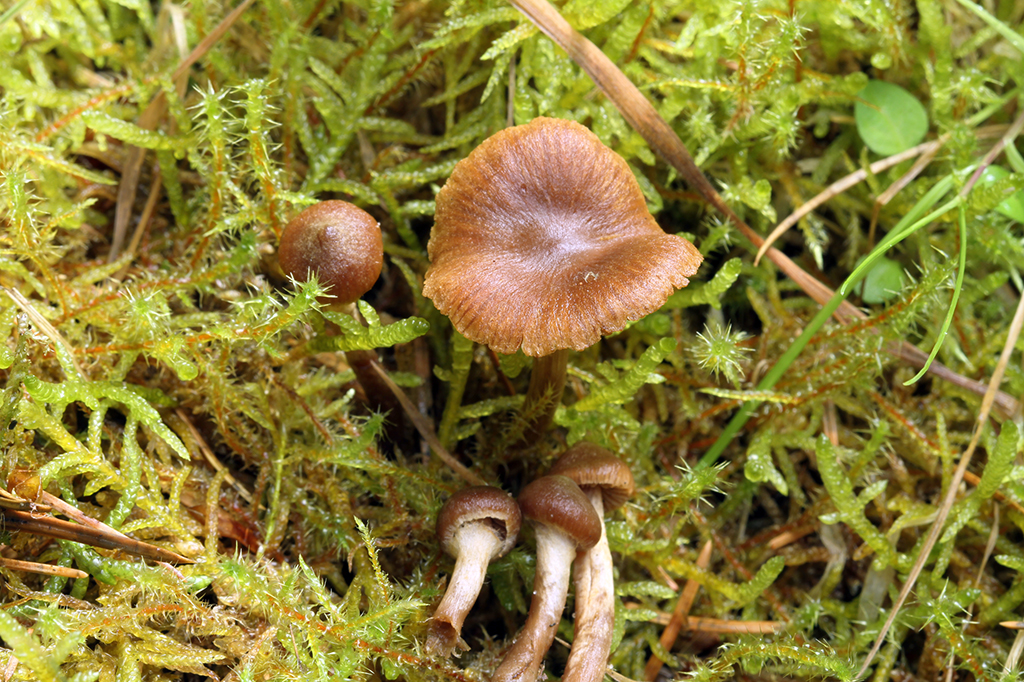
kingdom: Fungi
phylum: Basidiomycota
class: Agaricomycetes
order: Agaricales
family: Cortinariaceae
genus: Cortinarius
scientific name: Cortinarius denigratoides
